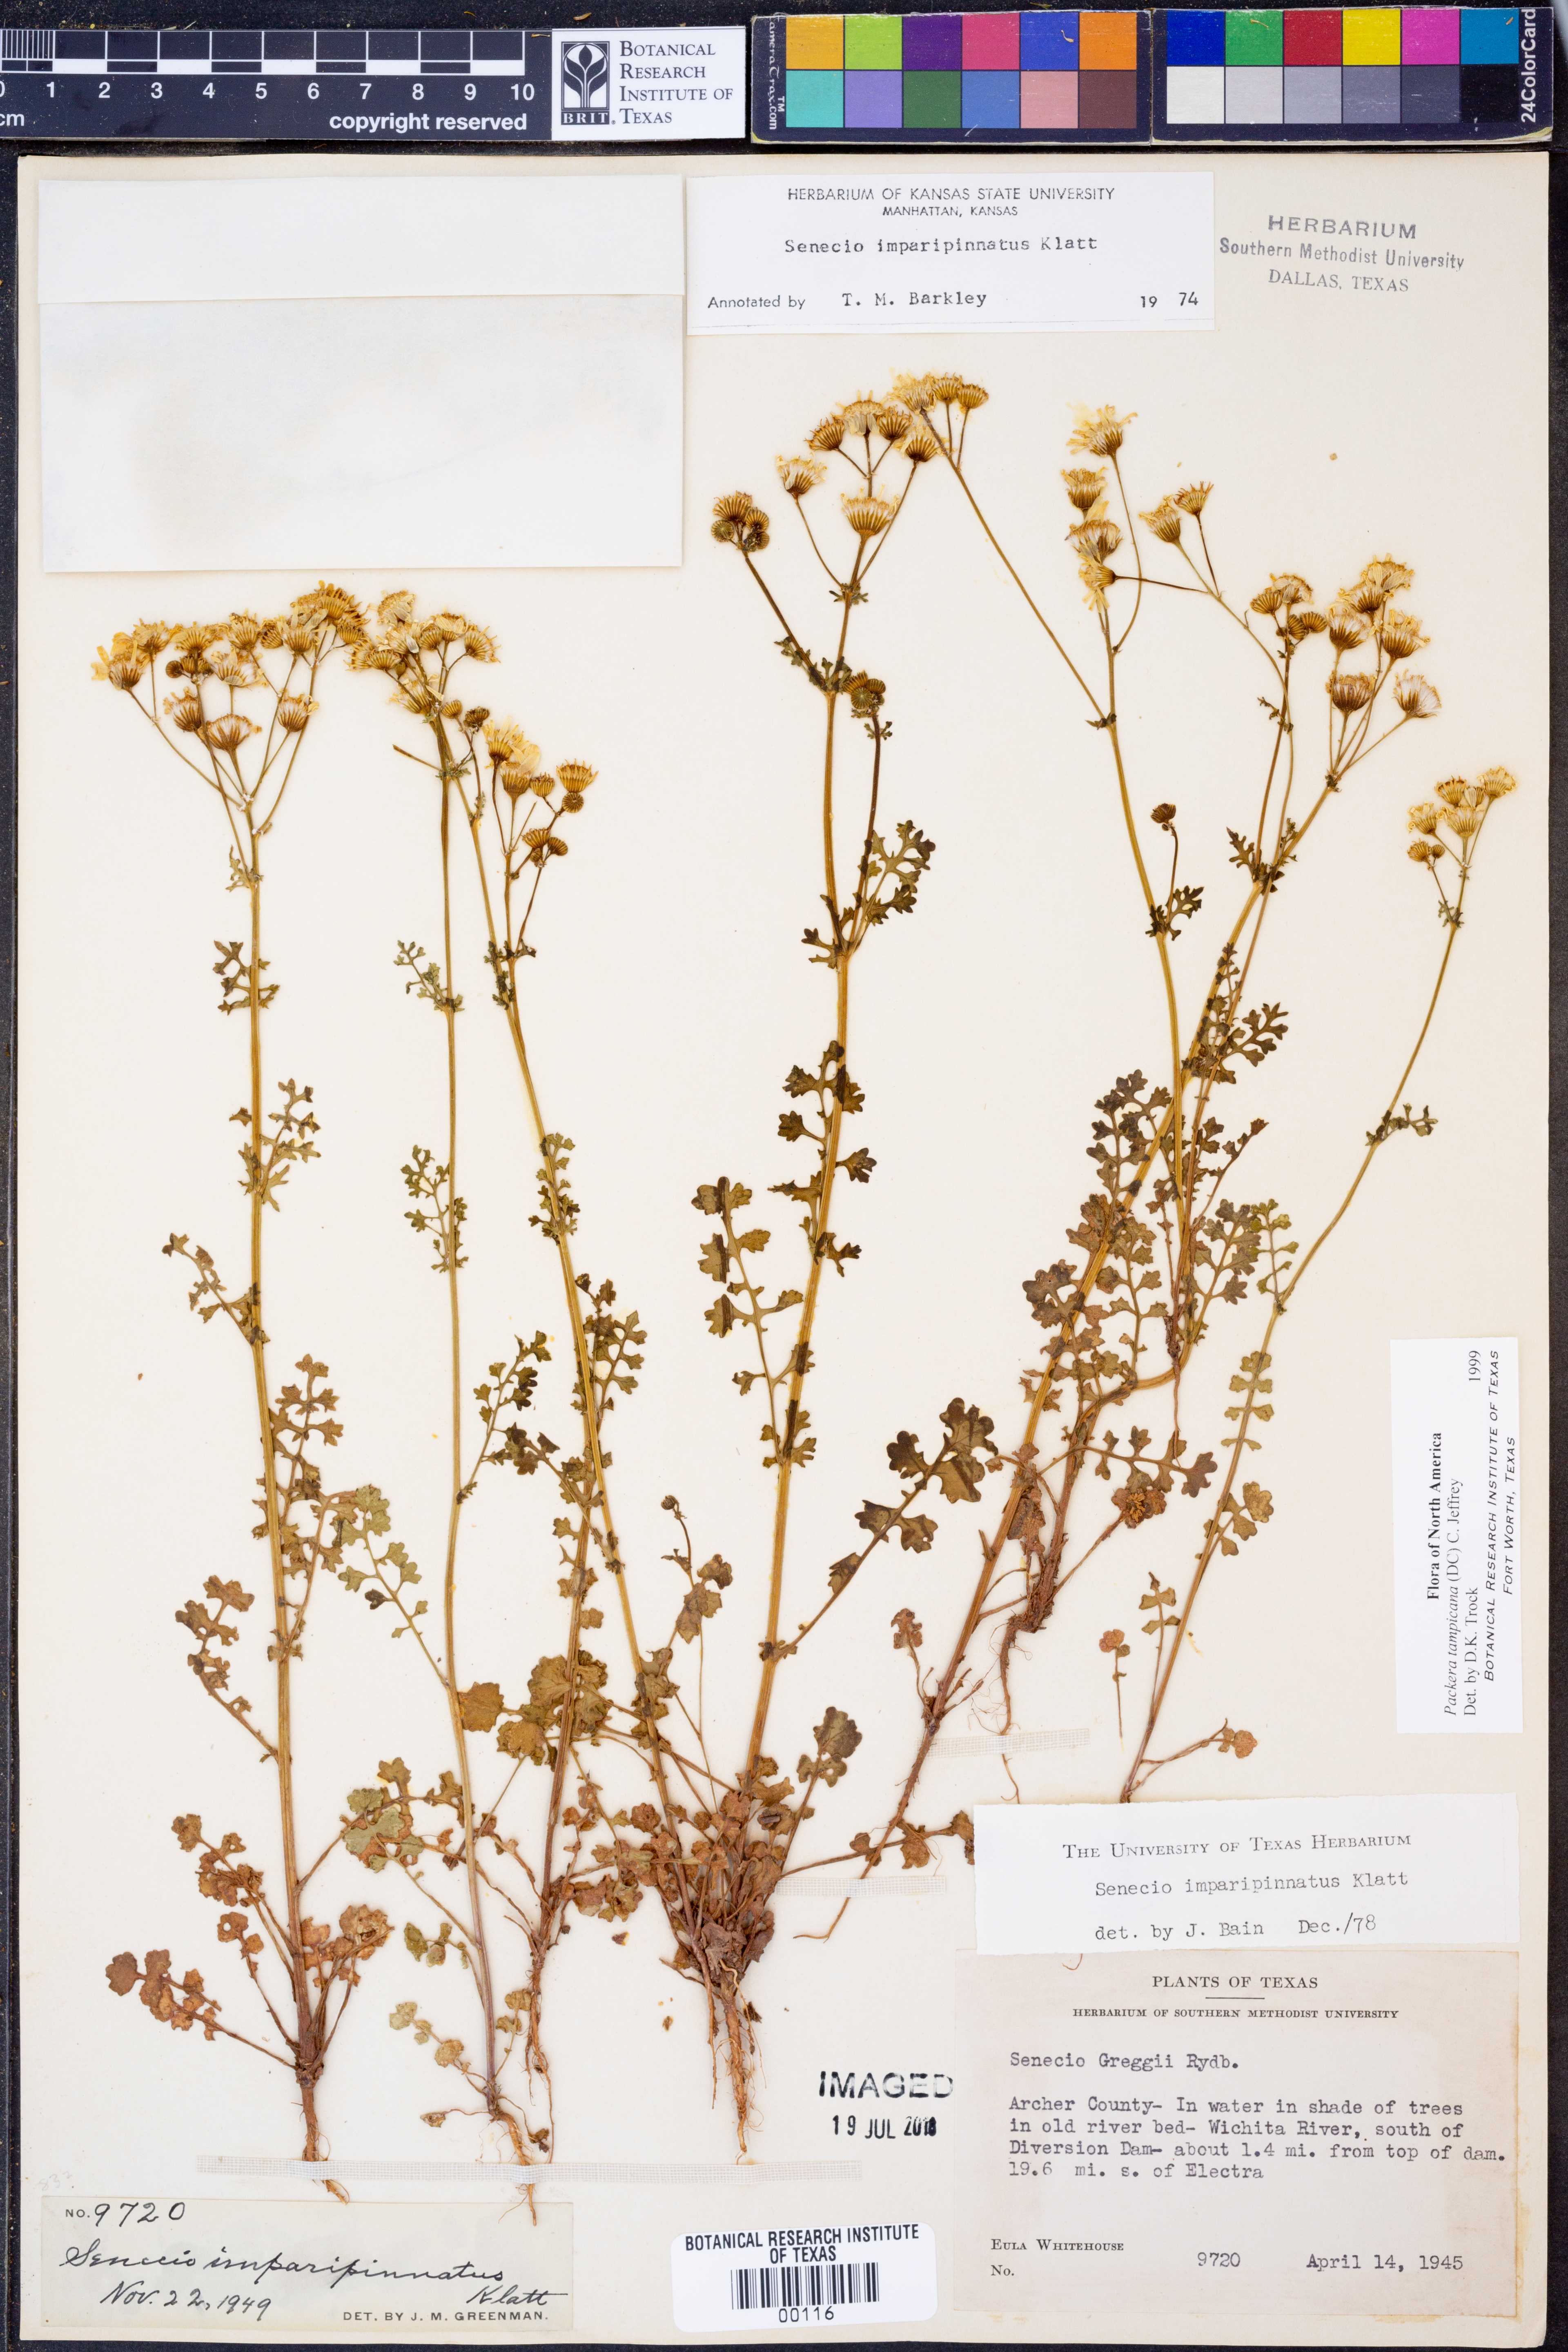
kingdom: Plantae
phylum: Tracheophyta
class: Magnoliopsida
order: Asterales
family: Asteraceae
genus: Packera
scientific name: Packera tampicana
